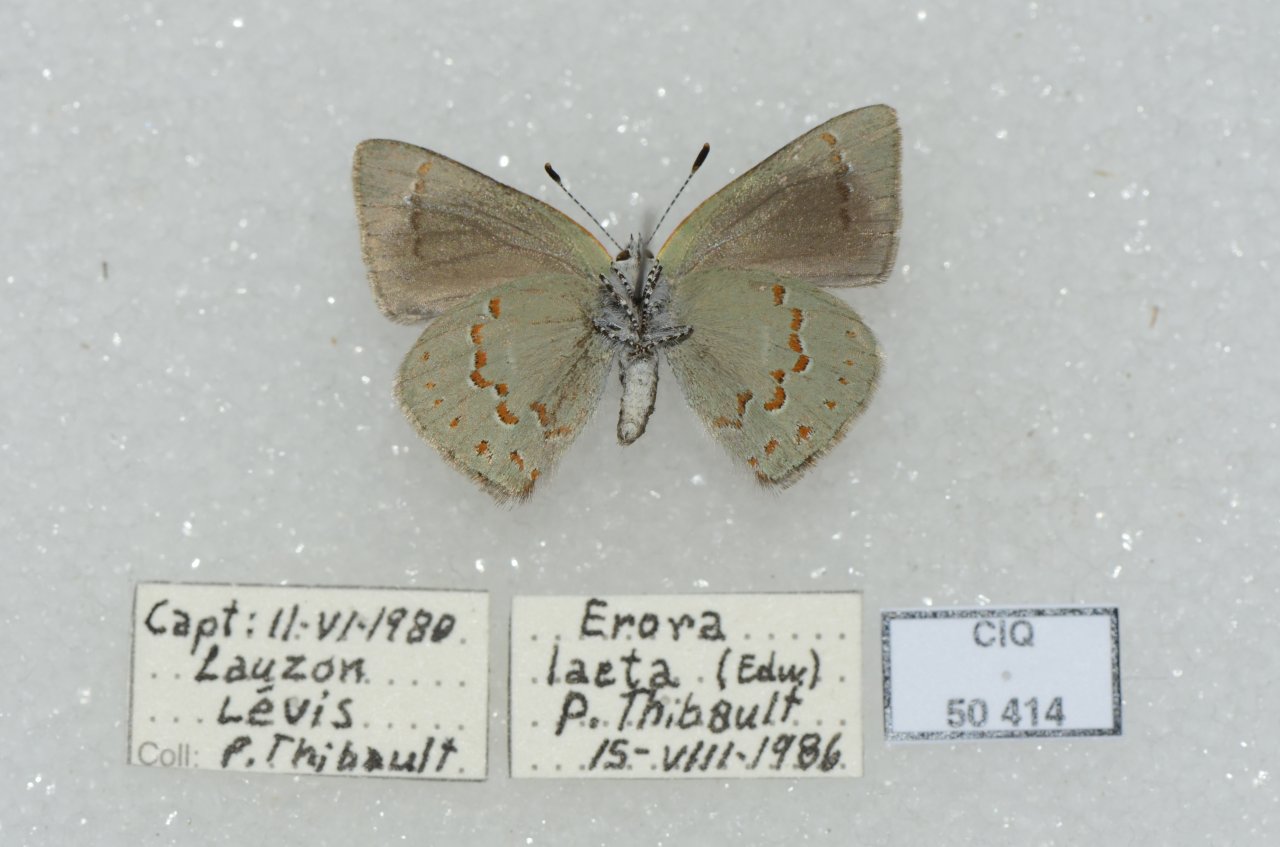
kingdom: Animalia
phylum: Arthropoda
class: Insecta
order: Lepidoptera
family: Lycaenidae
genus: Erora
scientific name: Erora laeta
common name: Early Hairstreak
